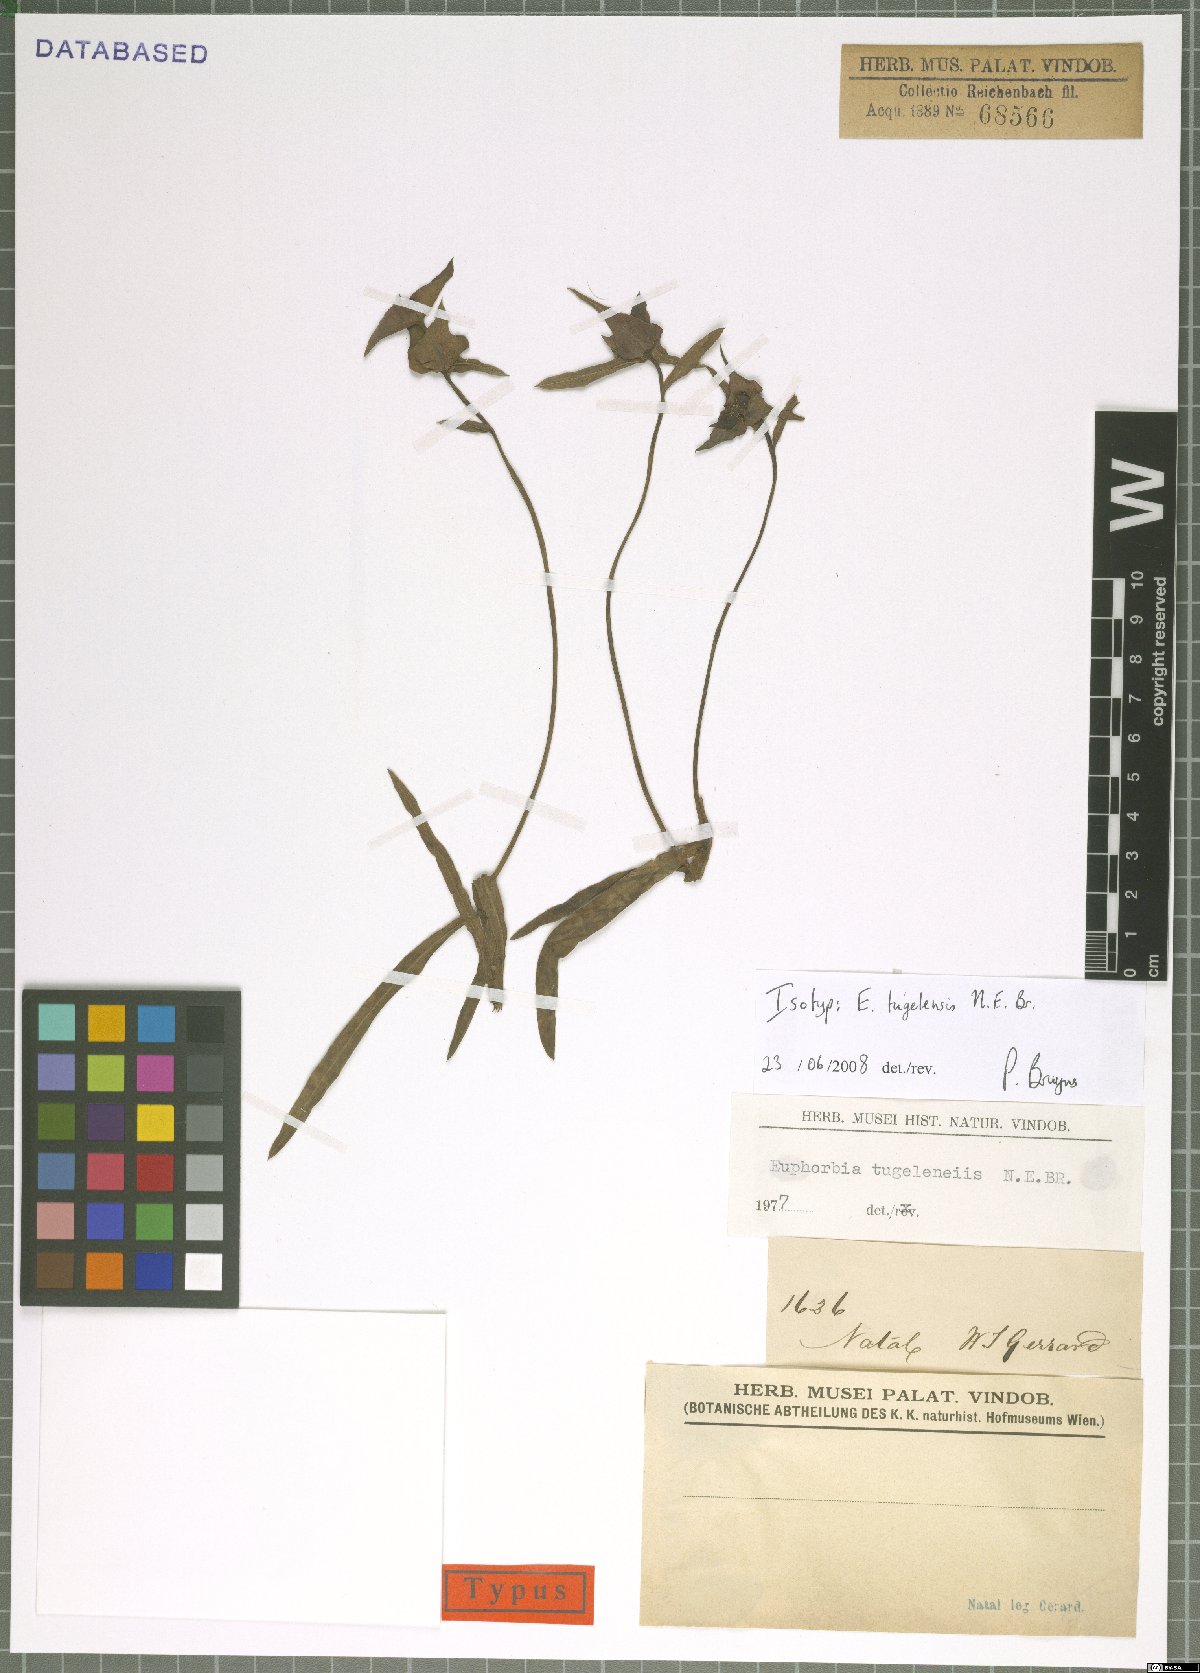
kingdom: Plantae
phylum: Tracheophyta
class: Magnoliopsida
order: Malpighiales
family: Euphorbiaceae
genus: Euphorbia
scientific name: Euphorbia bubalina
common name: Buffalo euphorbia
